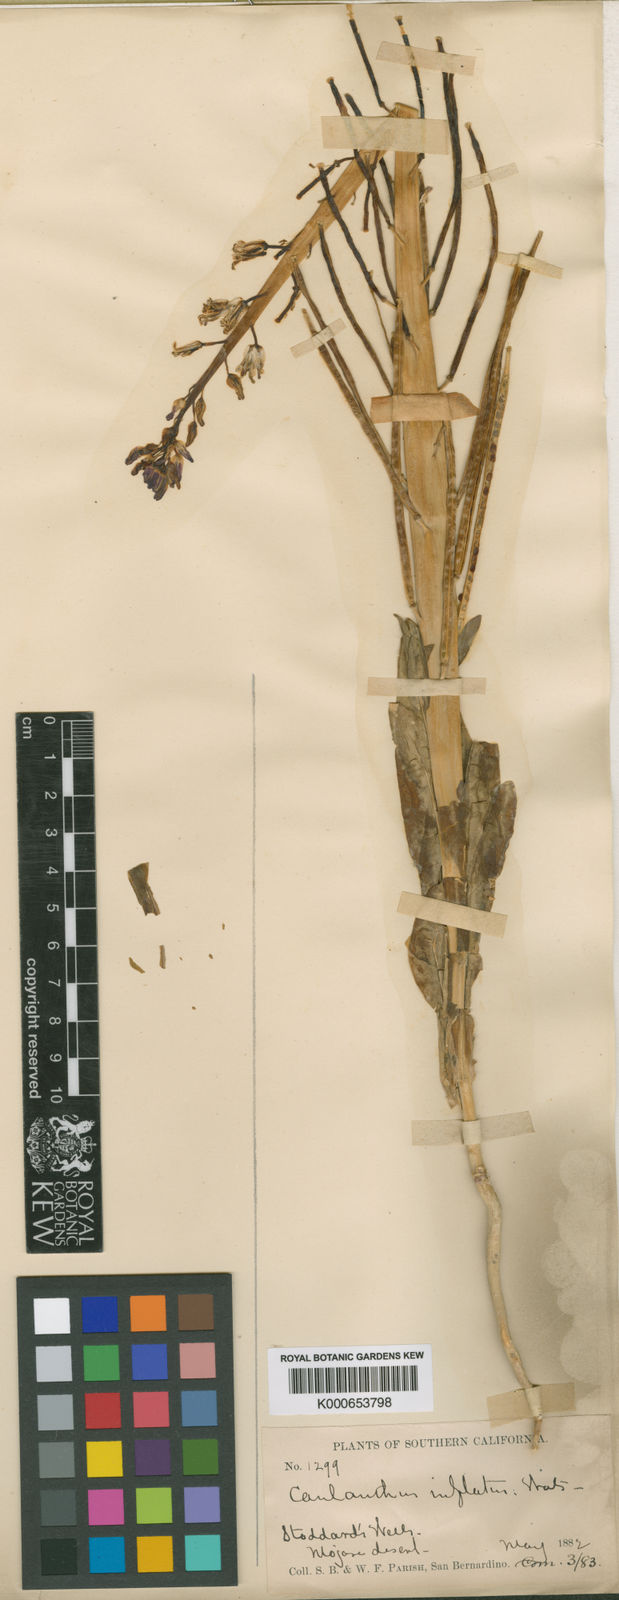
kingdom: Plantae
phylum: Tracheophyta
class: Magnoliopsida
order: Brassicales
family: Brassicaceae
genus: Streptanthus
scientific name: Streptanthus inflatus
